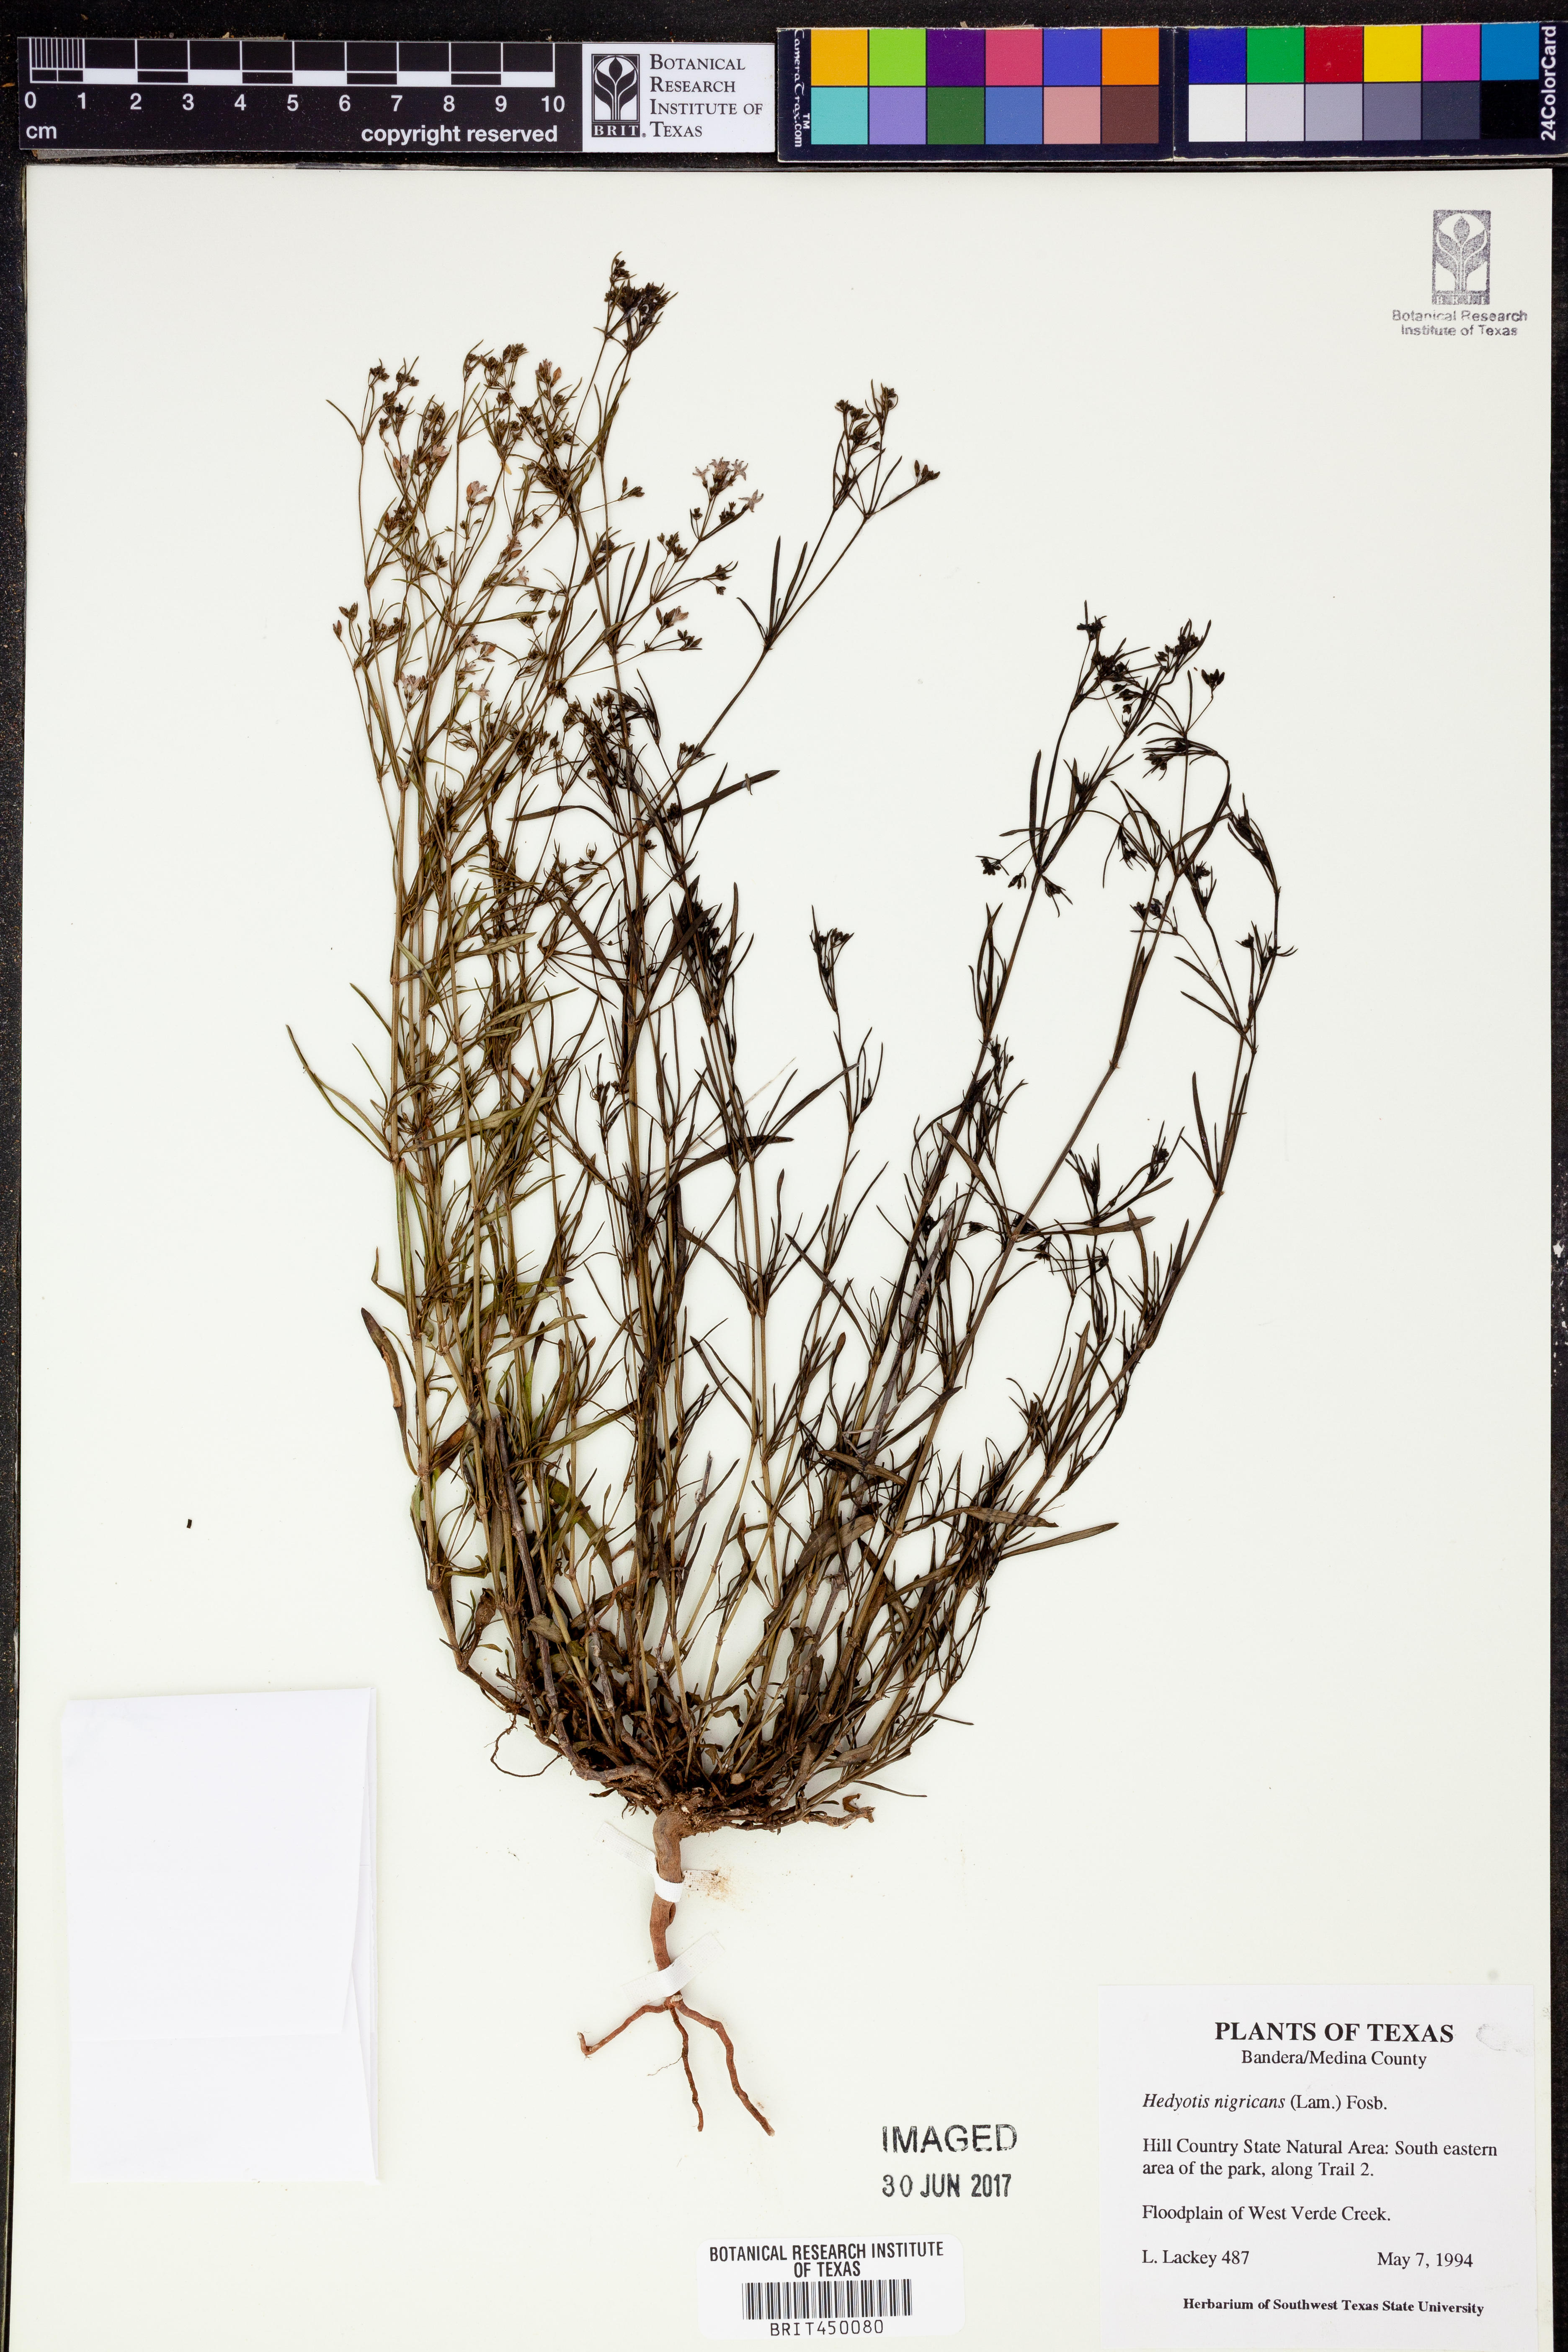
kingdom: Plantae
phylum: Tracheophyta
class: Magnoliopsida
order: Gentianales
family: Rubiaceae
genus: Stenaria
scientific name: Stenaria nigricans
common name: Diamondflowers
